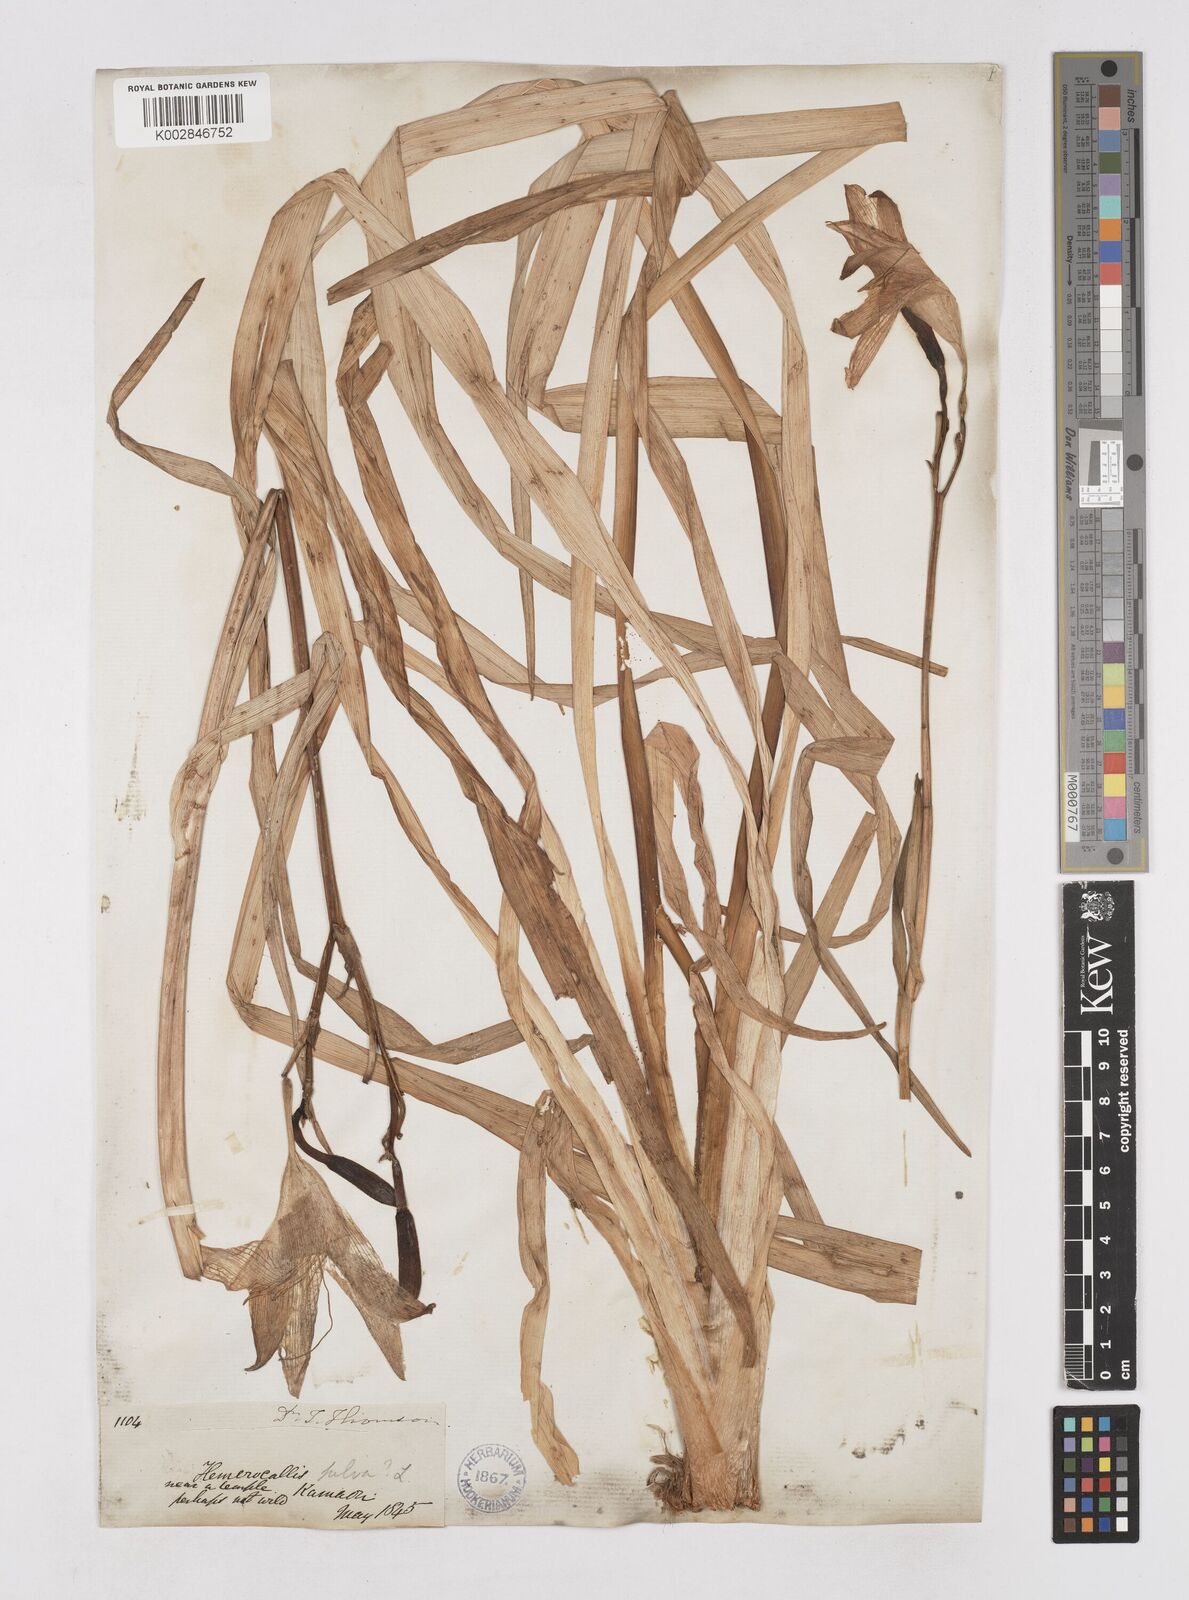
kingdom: Plantae
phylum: Tracheophyta
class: Liliopsida
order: Asparagales
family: Asphodelaceae
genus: Hemerocallis
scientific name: Hemerocallis fulva
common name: Orange day-lily
